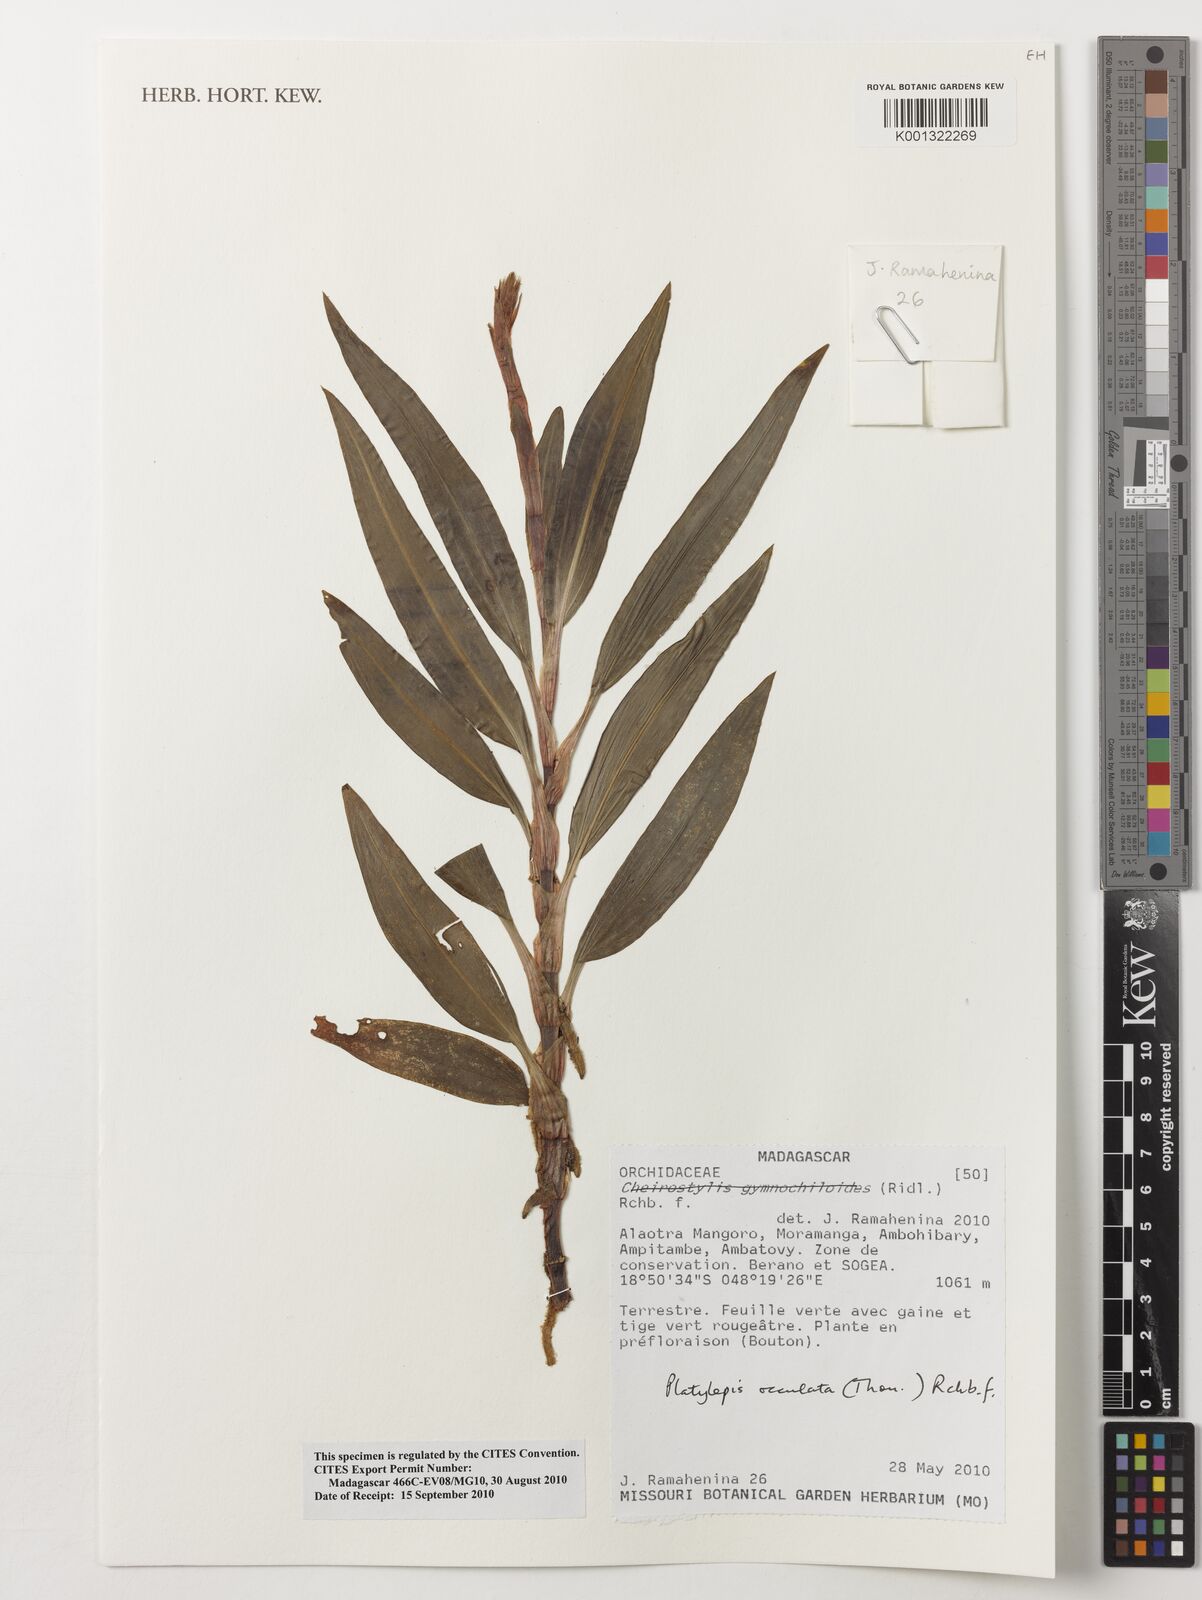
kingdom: Plantae
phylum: Tracheophyta
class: Liliopsida
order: Asparagales
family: Orchidaceae
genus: Platylepis
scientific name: Platylepis
